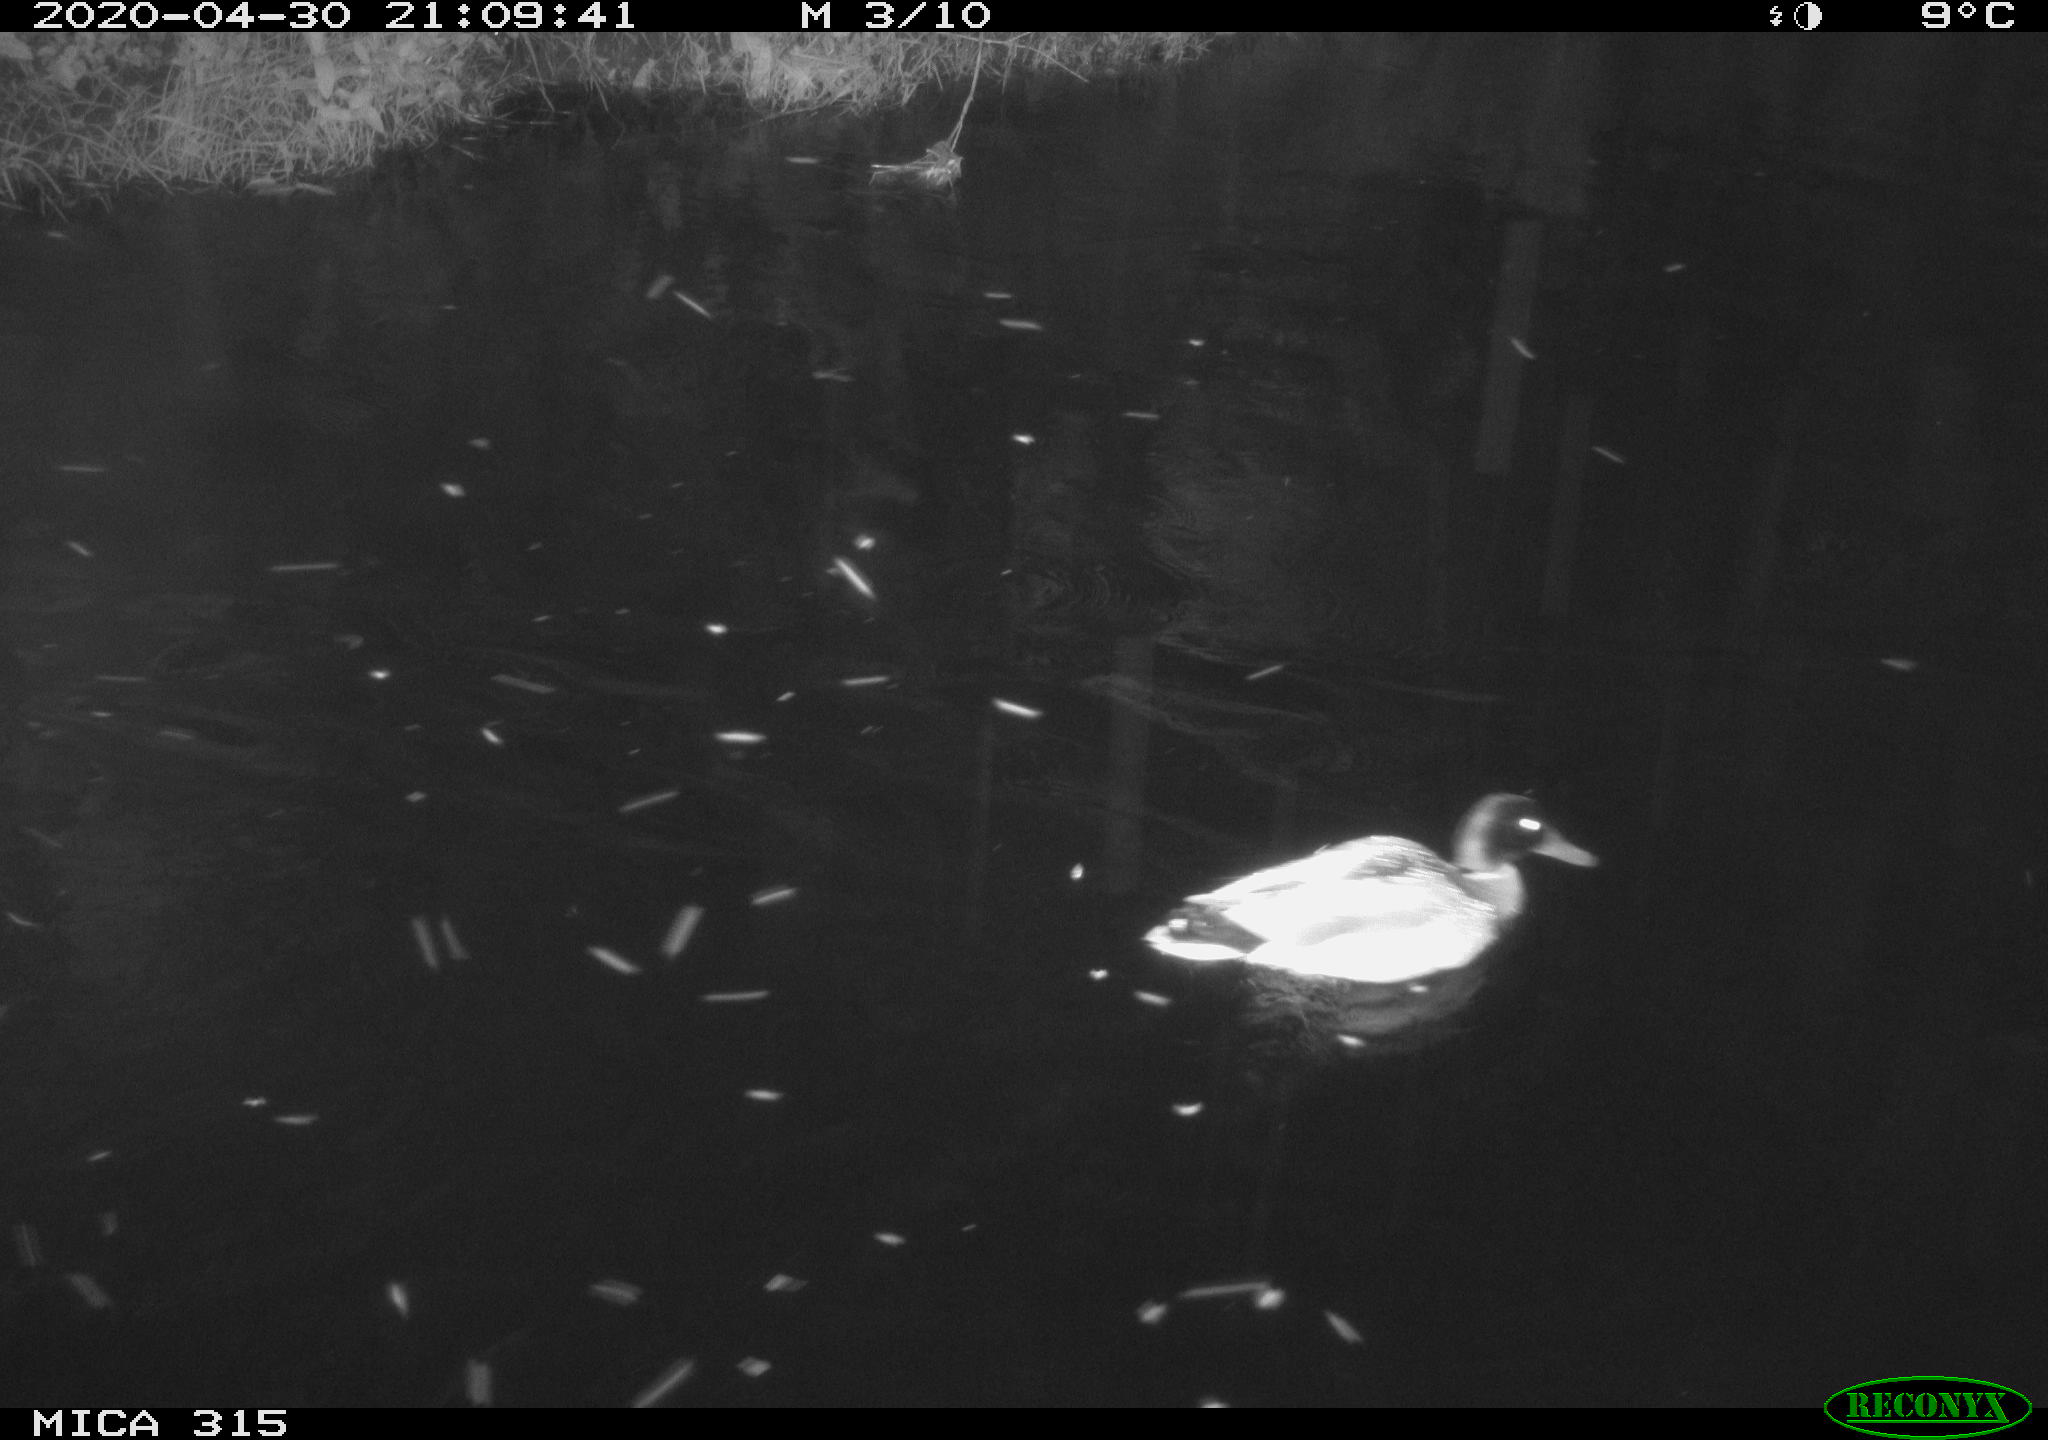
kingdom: Animalia
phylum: Chordata
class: Aves
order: Anseriformes
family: Anatidae
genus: Anas
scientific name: Anas platyrhynchos
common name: Mallard
